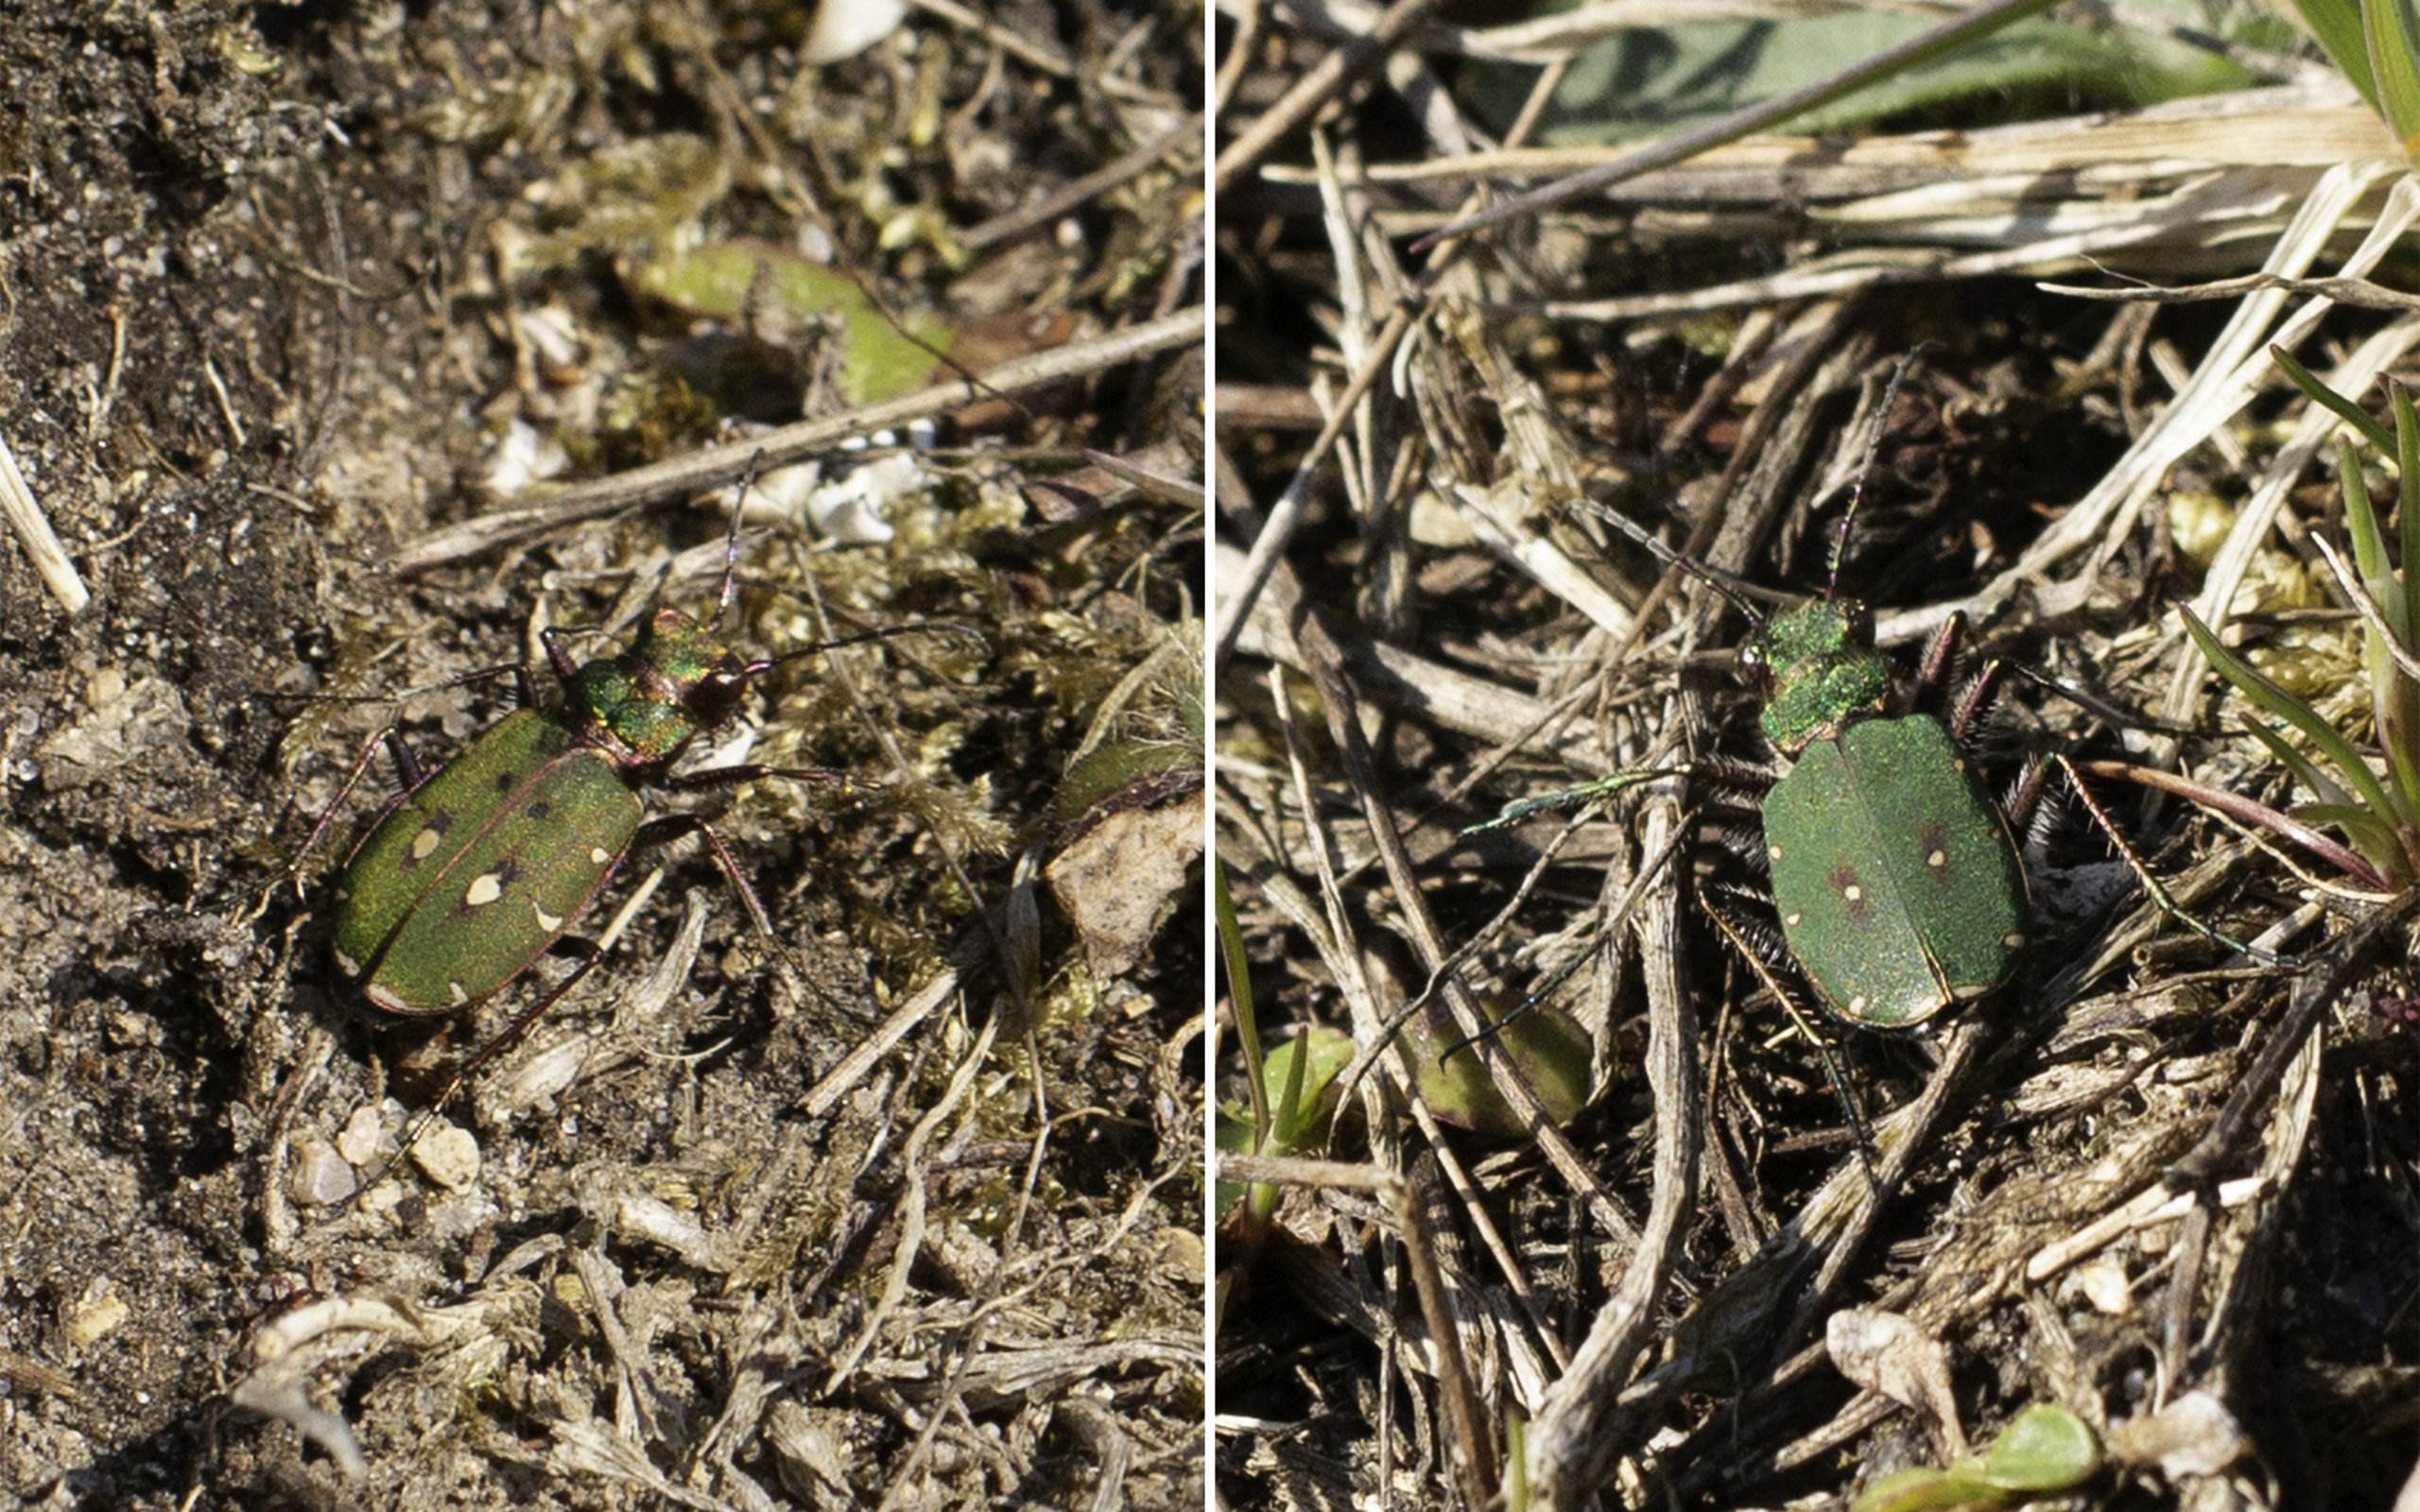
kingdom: Animalia
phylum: Arthropoda
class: Insecta
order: Coleoptera
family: Carabidae
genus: Cicindela
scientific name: Cicindela campestris
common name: Grøn sandspringer
